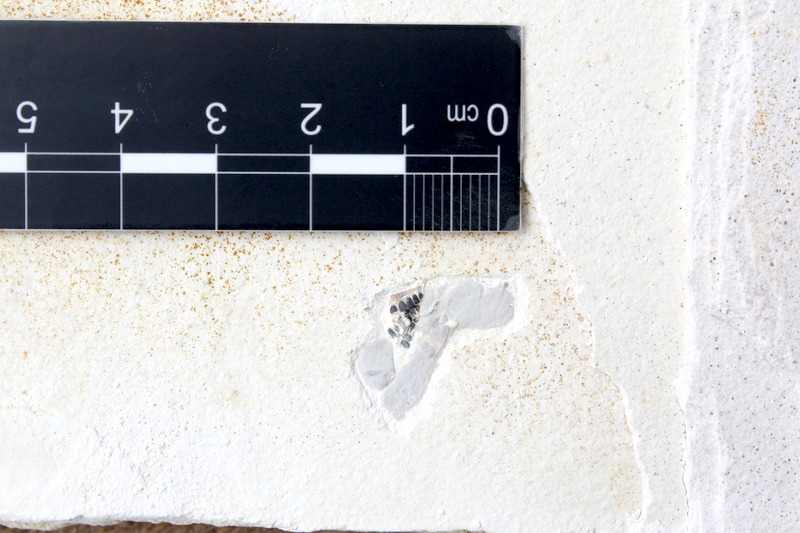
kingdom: Animalia
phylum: Chordata
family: Pycnodontidae
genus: Turbomesodon
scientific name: Turbomesodon relegans
